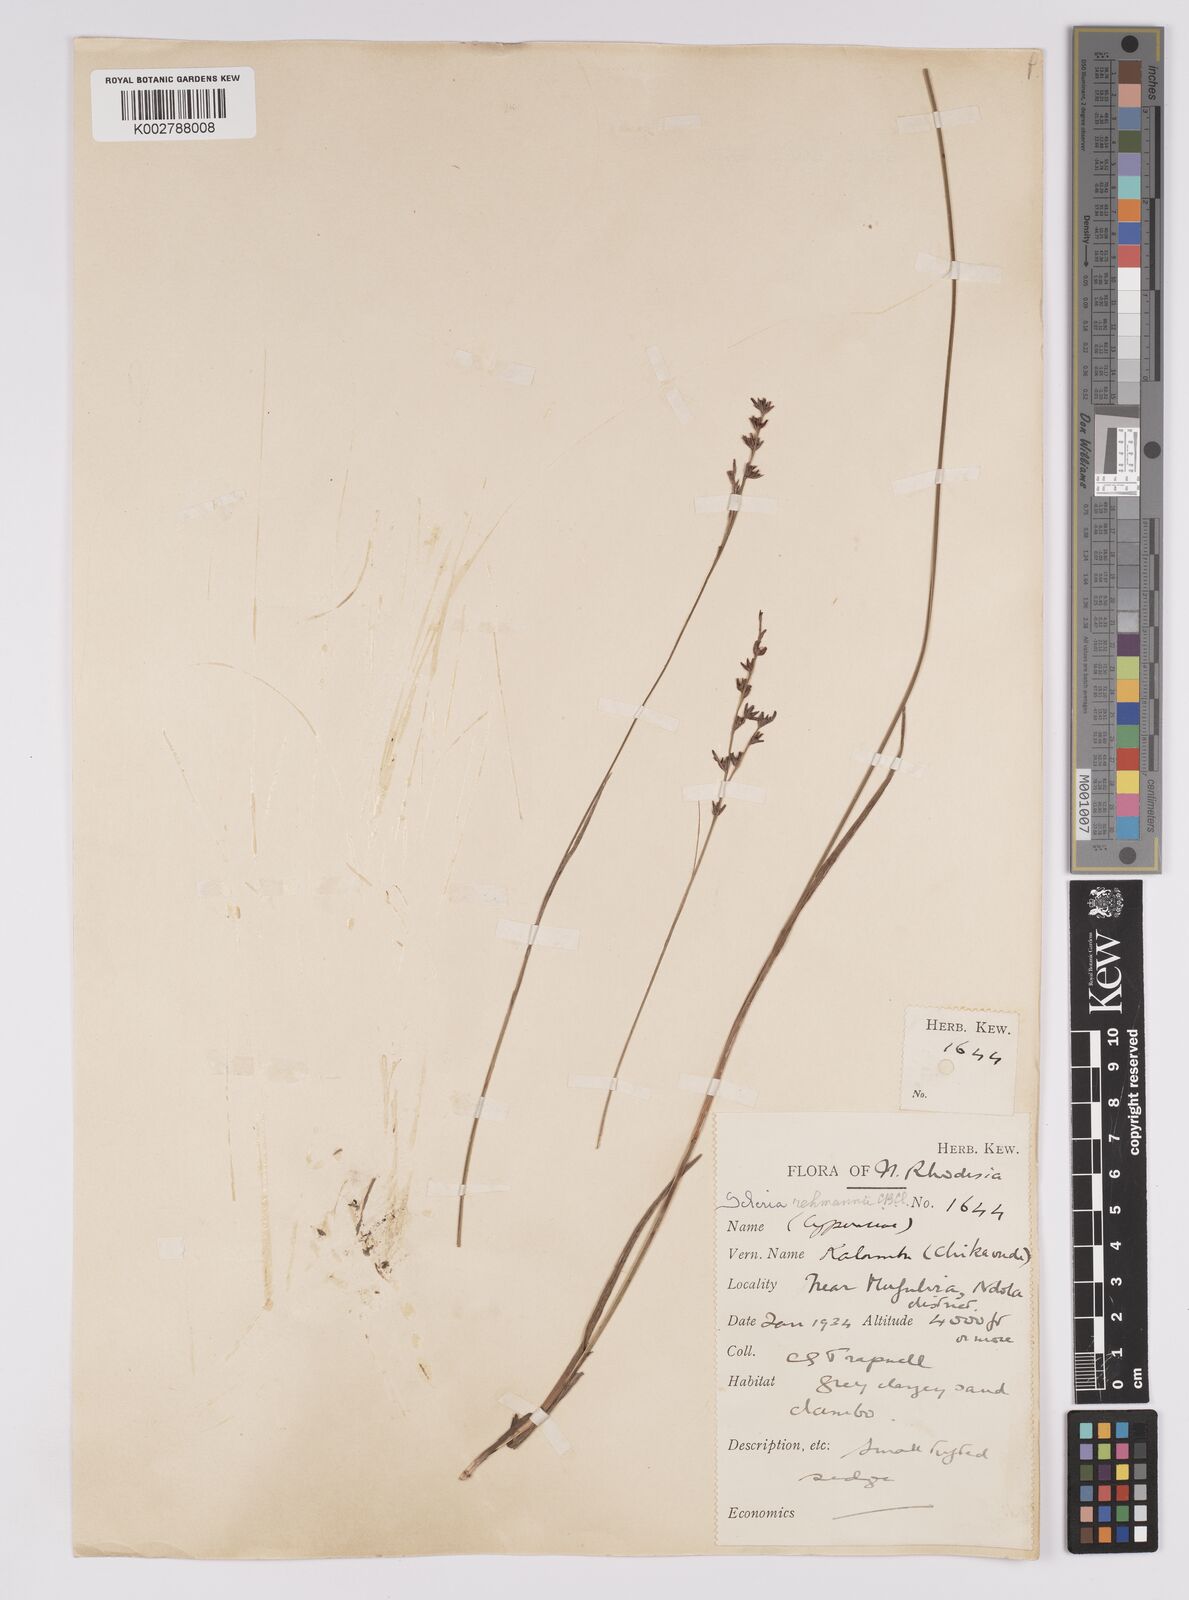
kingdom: Plantae
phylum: Tracheophyta
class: Liliopsida
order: Poales
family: Cyperaceae
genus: Scleria
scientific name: Scleria rehmannii
